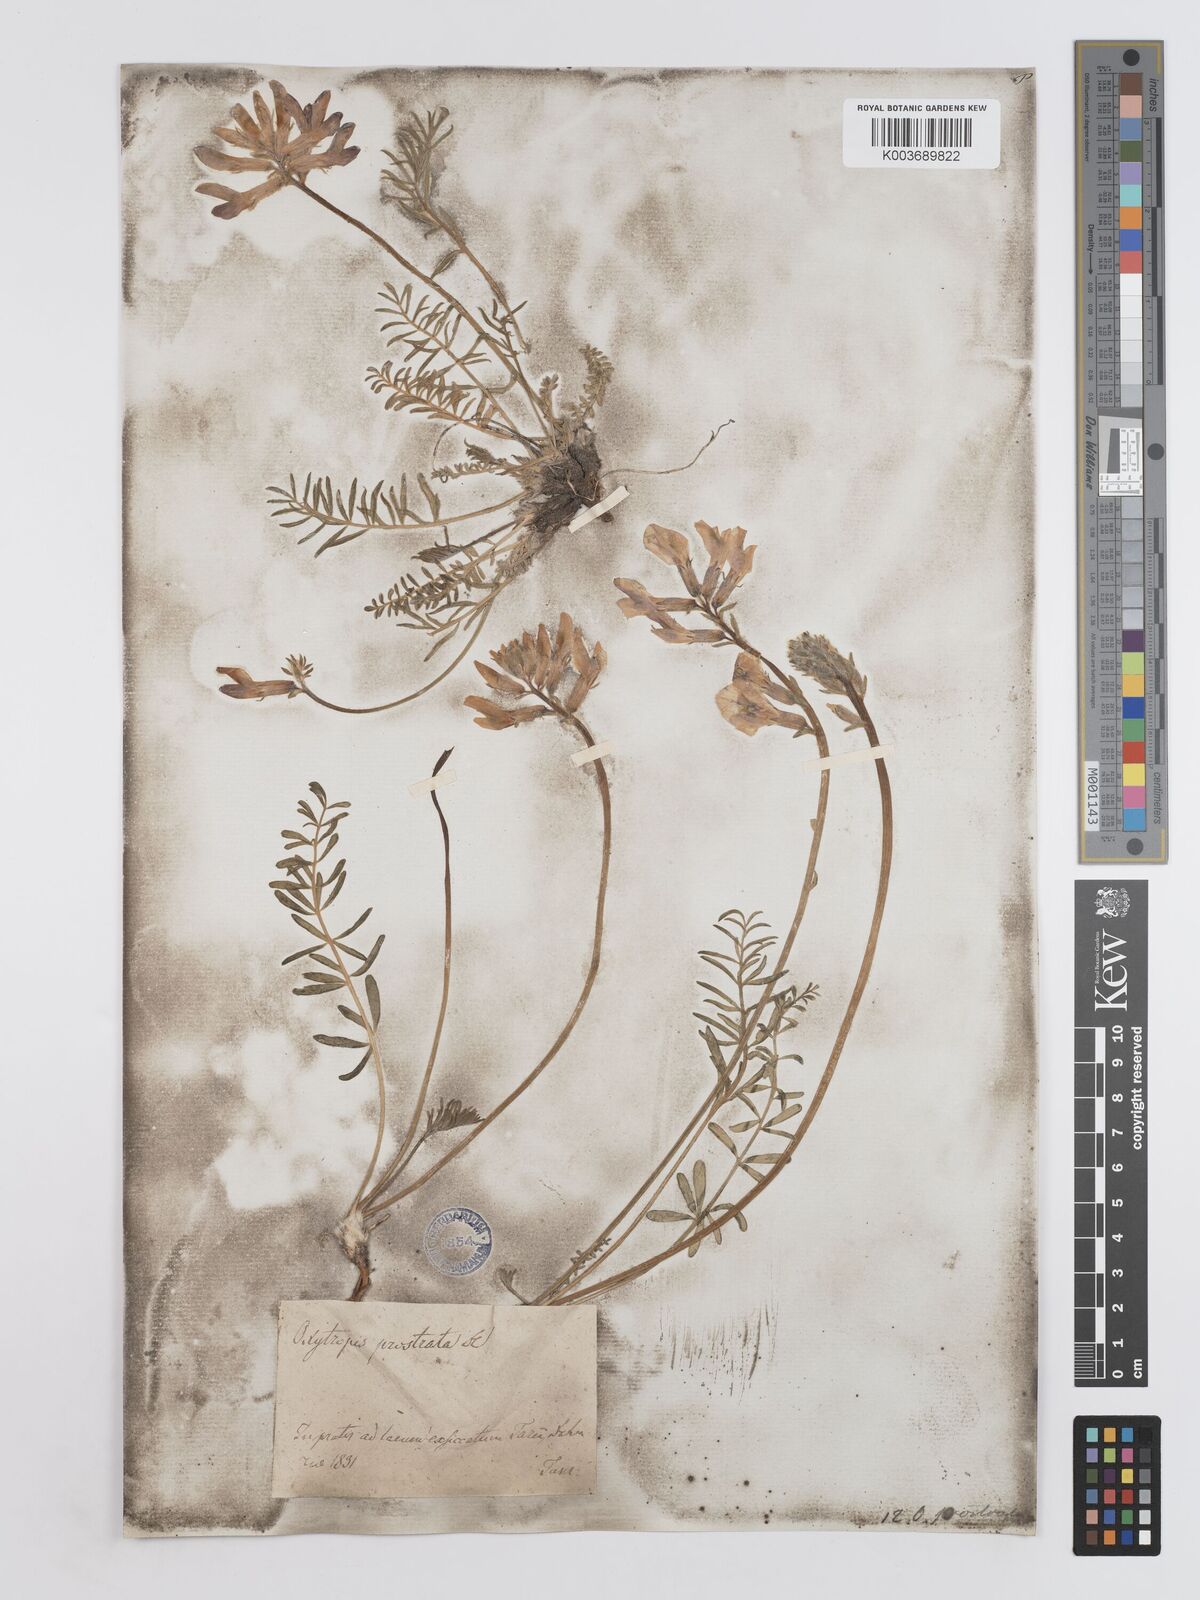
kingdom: Plantae
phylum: Tracheophyta
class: Magnoliopsida
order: Fabales
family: Fabaceae
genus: Oxytropis
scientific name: Oxytropis prostrata
